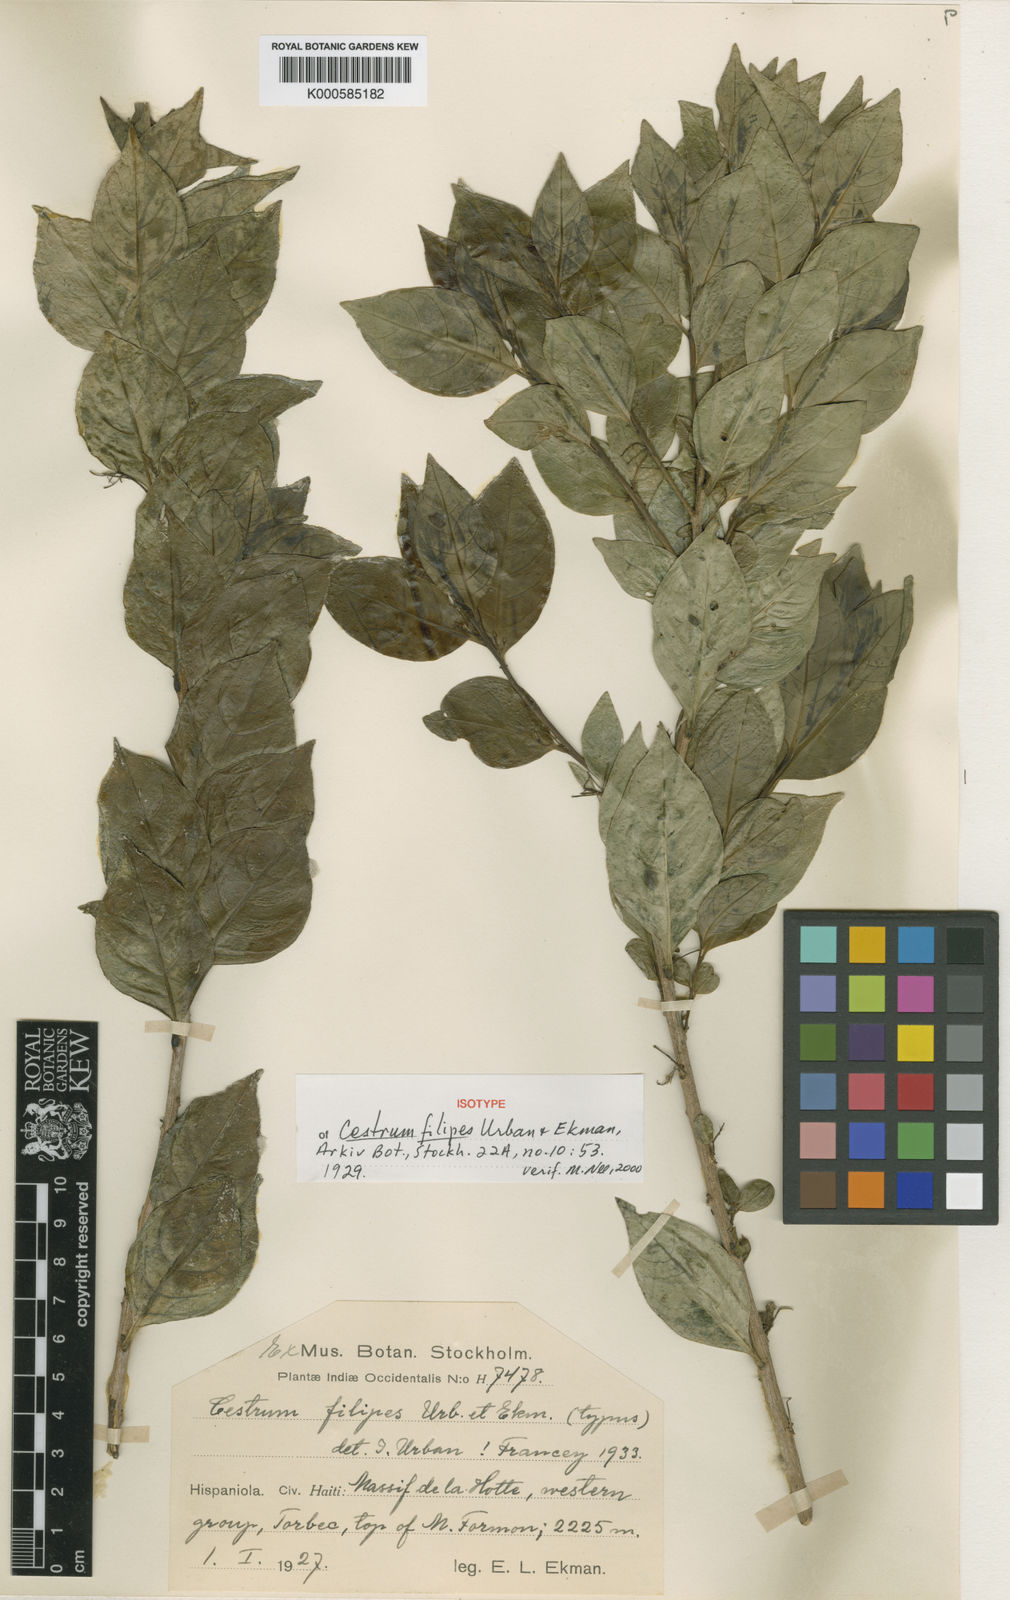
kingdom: Plantae
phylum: Tracheophyta
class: Magnoliopsida
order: Solanales
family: Solanaceae
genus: Cestrum
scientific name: Cestrum filipes
